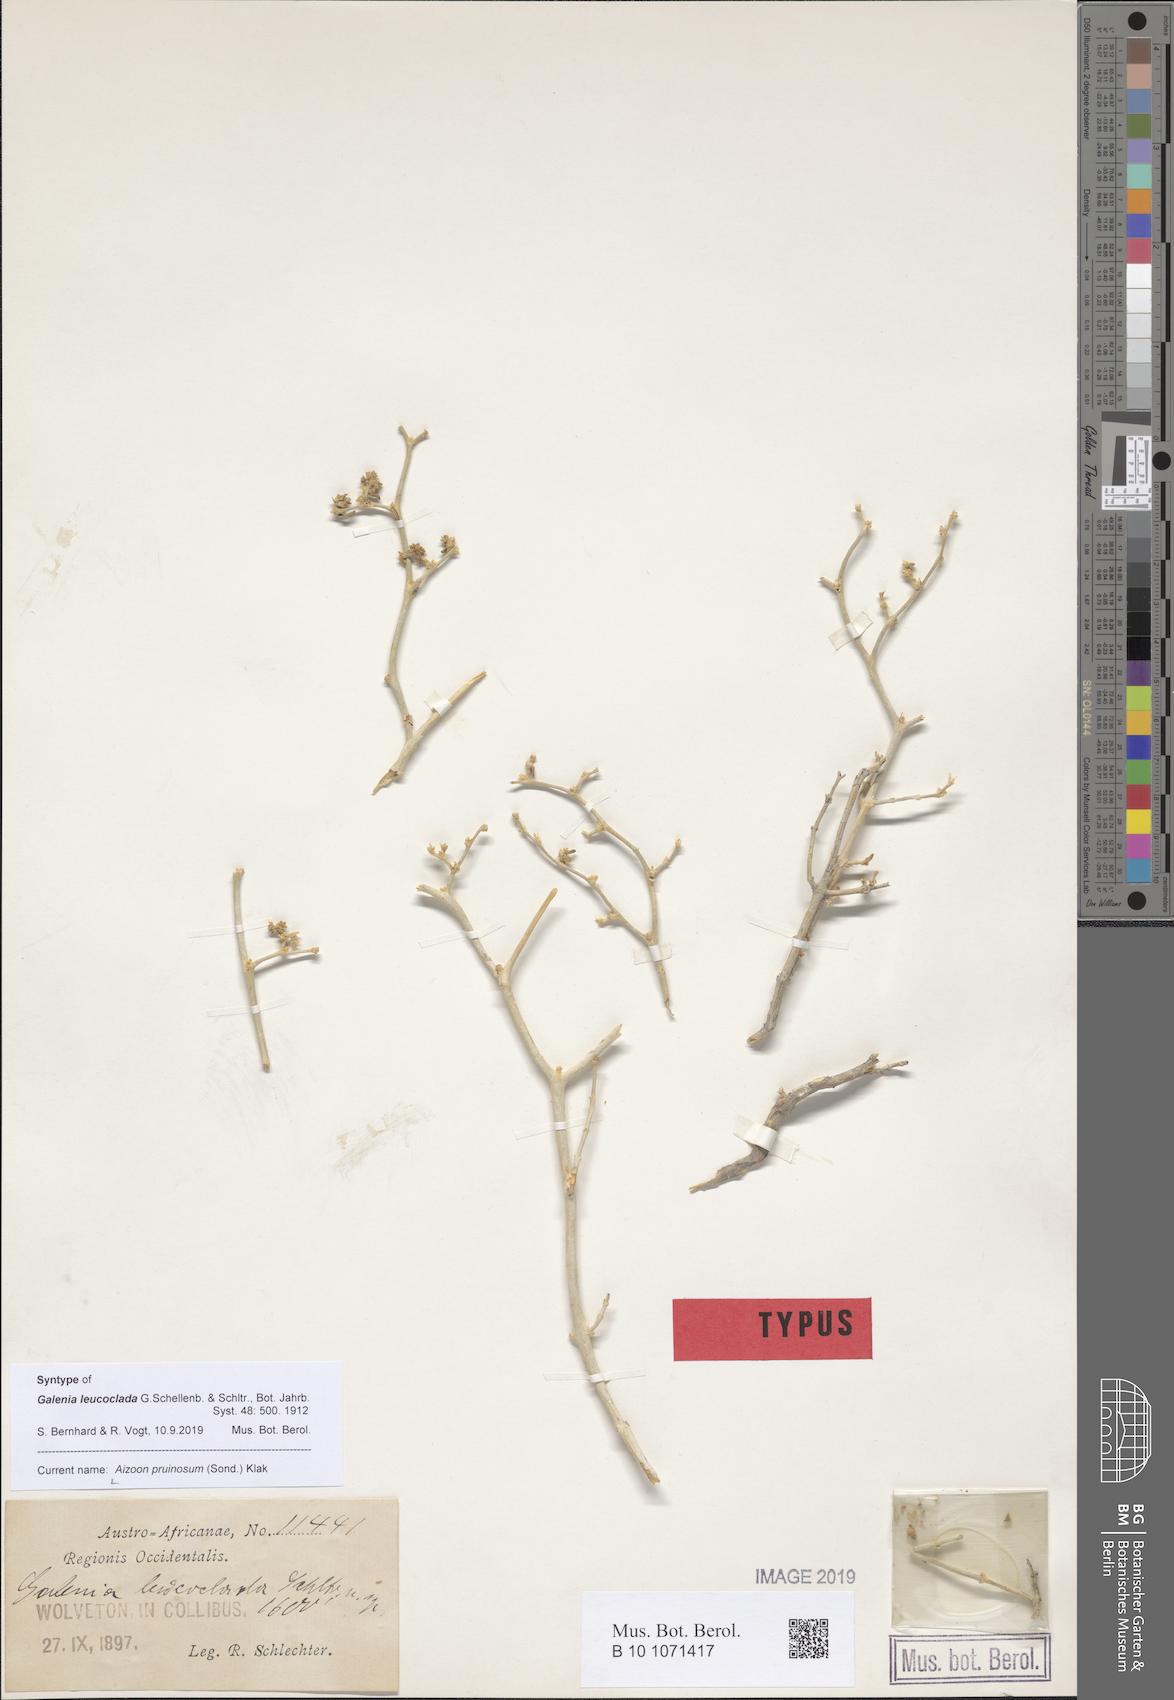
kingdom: Plantae
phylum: Tracheophyta
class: Magnoliopsida
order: Caryophyllales
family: Aizoaceae
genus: Aizoon
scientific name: Aizoon pruinosum
